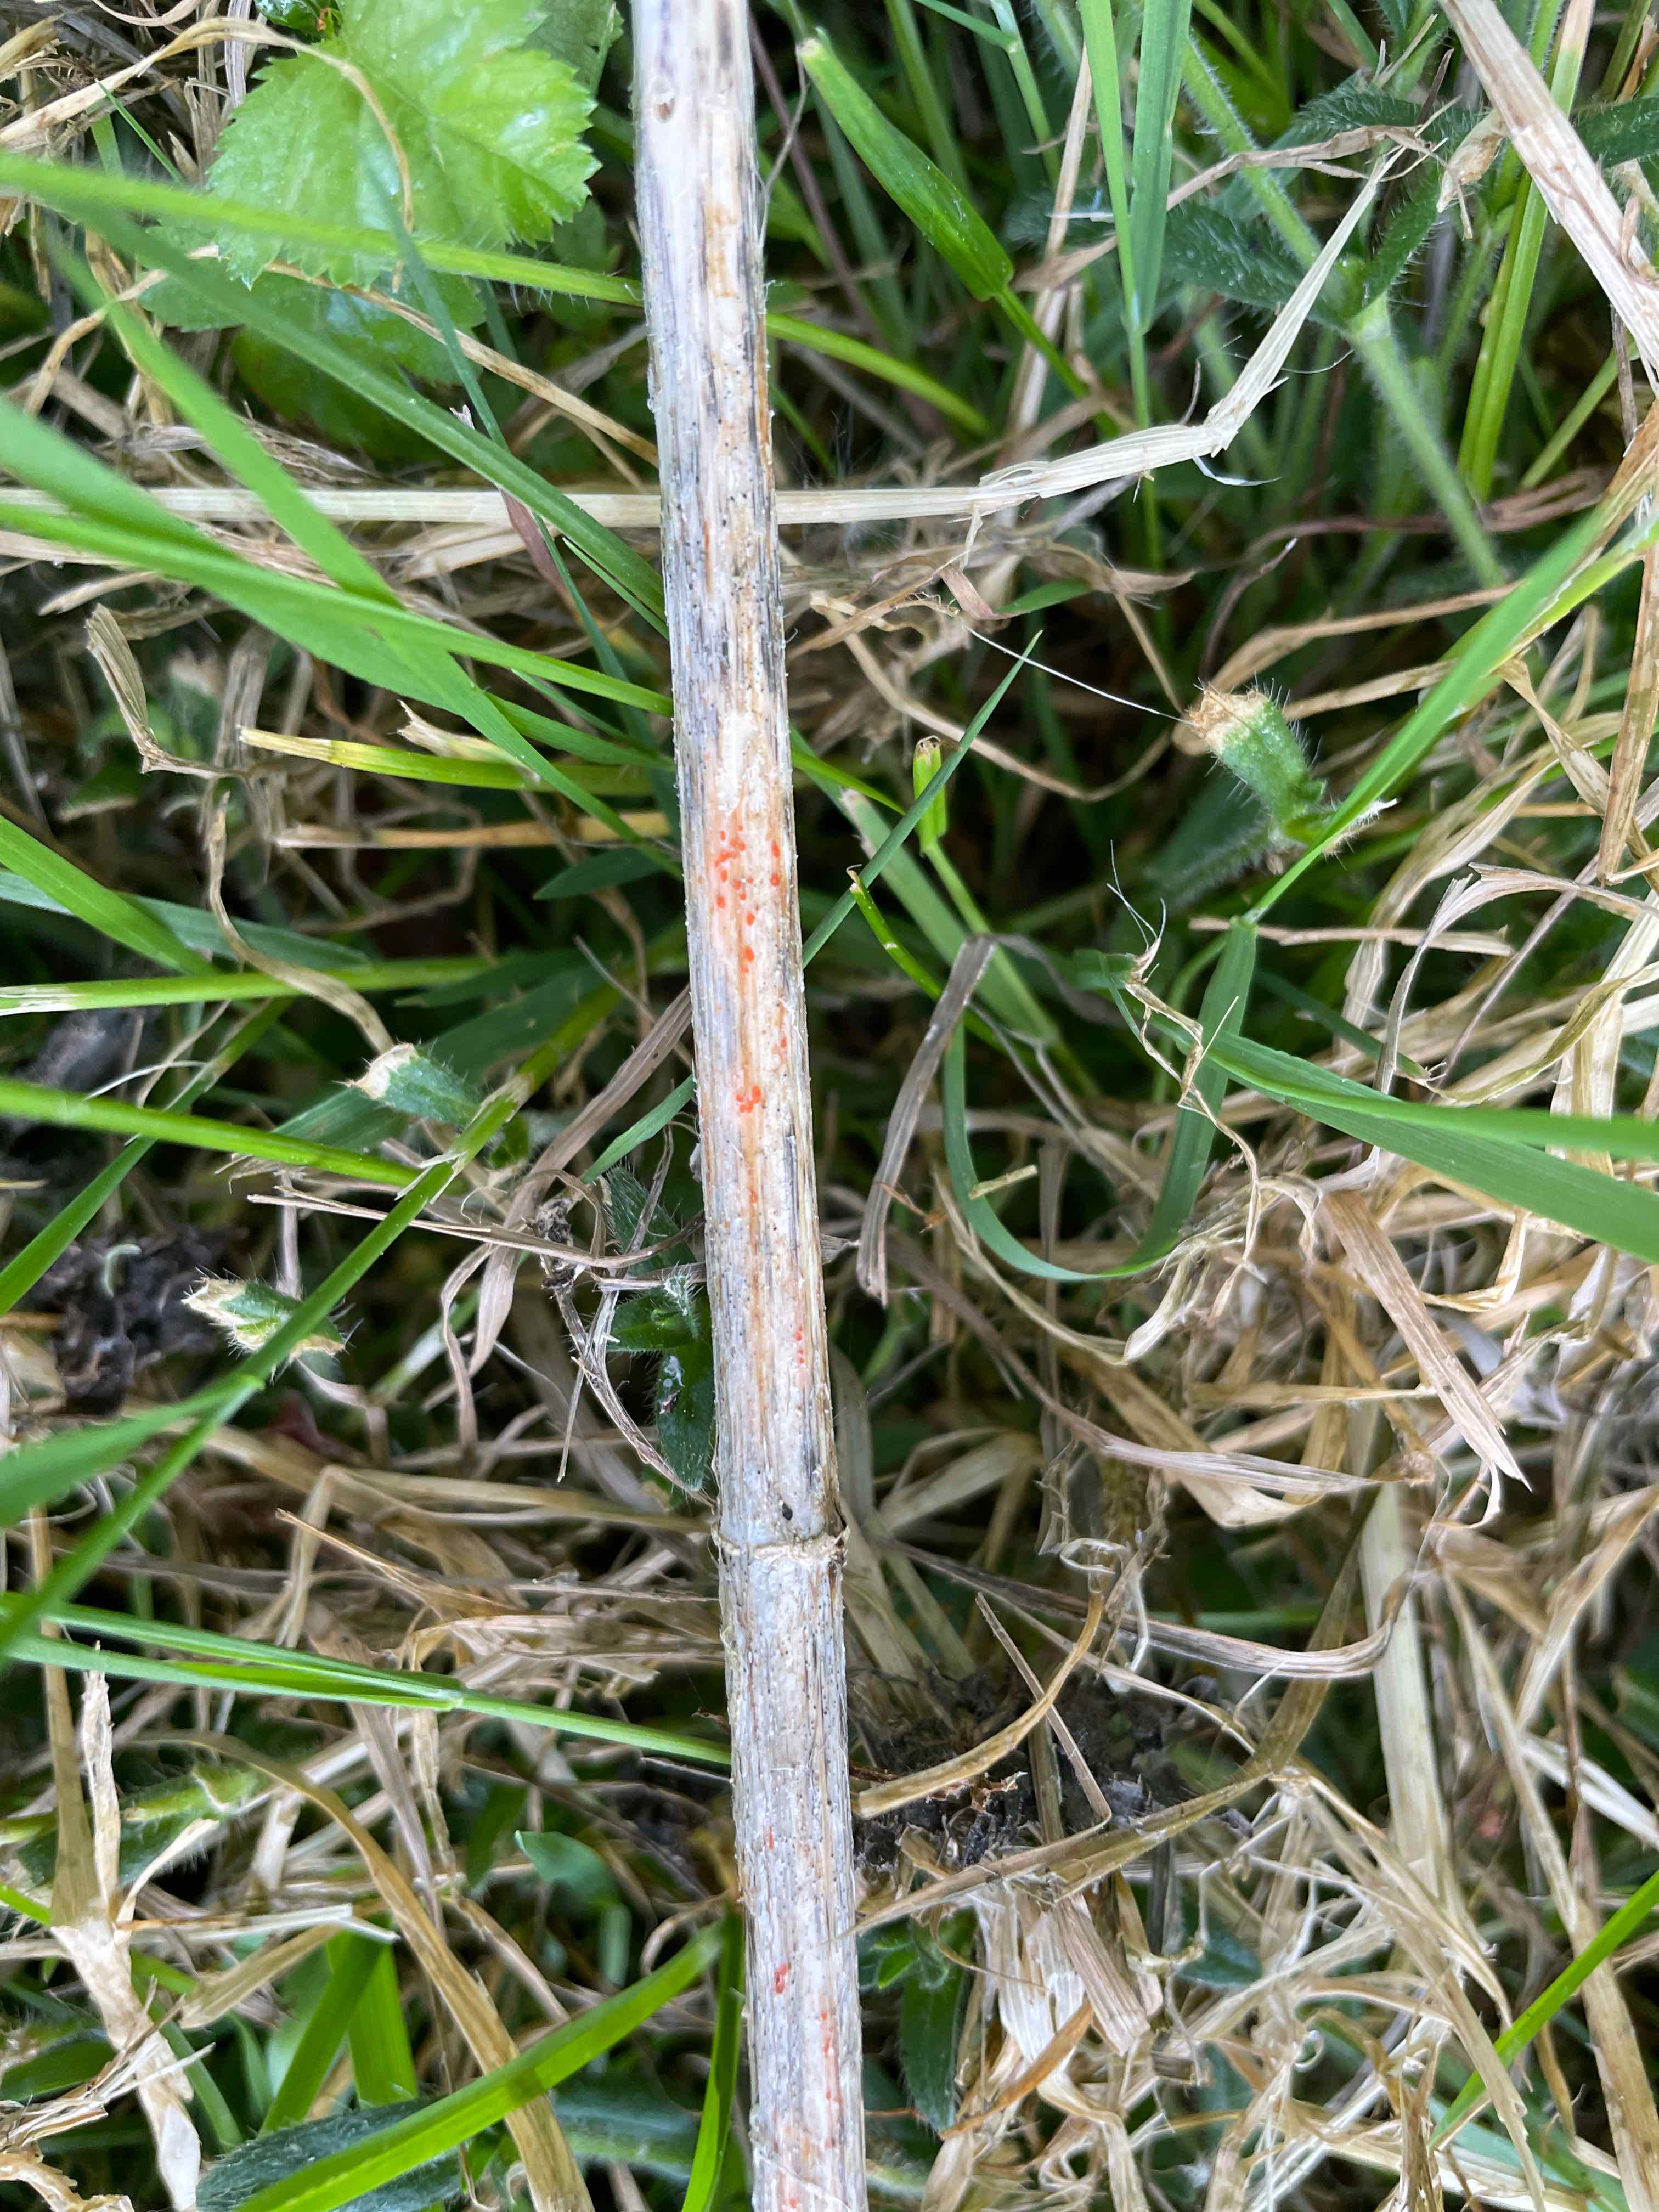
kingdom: Fungi
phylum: Ascomycota
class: Leotiomycetes
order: Helotiales
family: Calloriaceae
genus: Calloria
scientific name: Calloria urticae
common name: nælde-orangeskive
